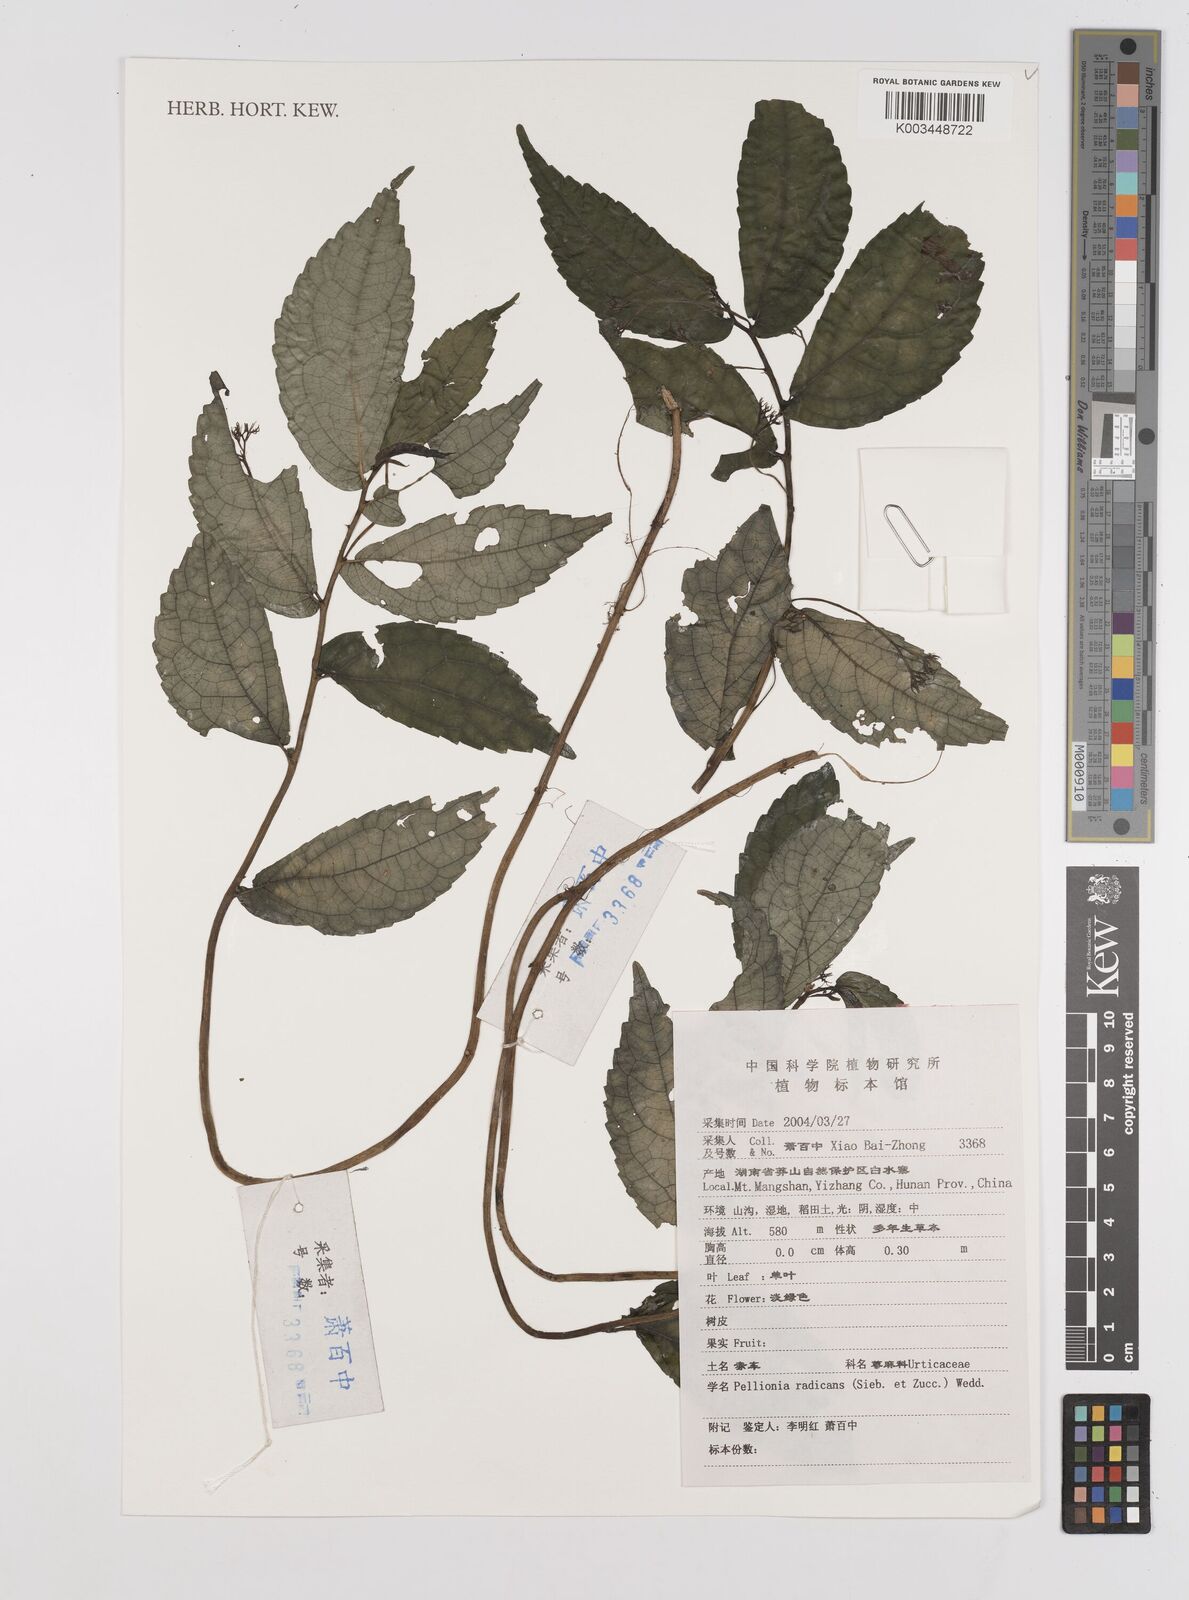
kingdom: Plantae
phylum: Tracheophyta
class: Magnoliopsida
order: Rosales
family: Urticaceae
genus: Elatostema
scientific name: Elatostema radicans
